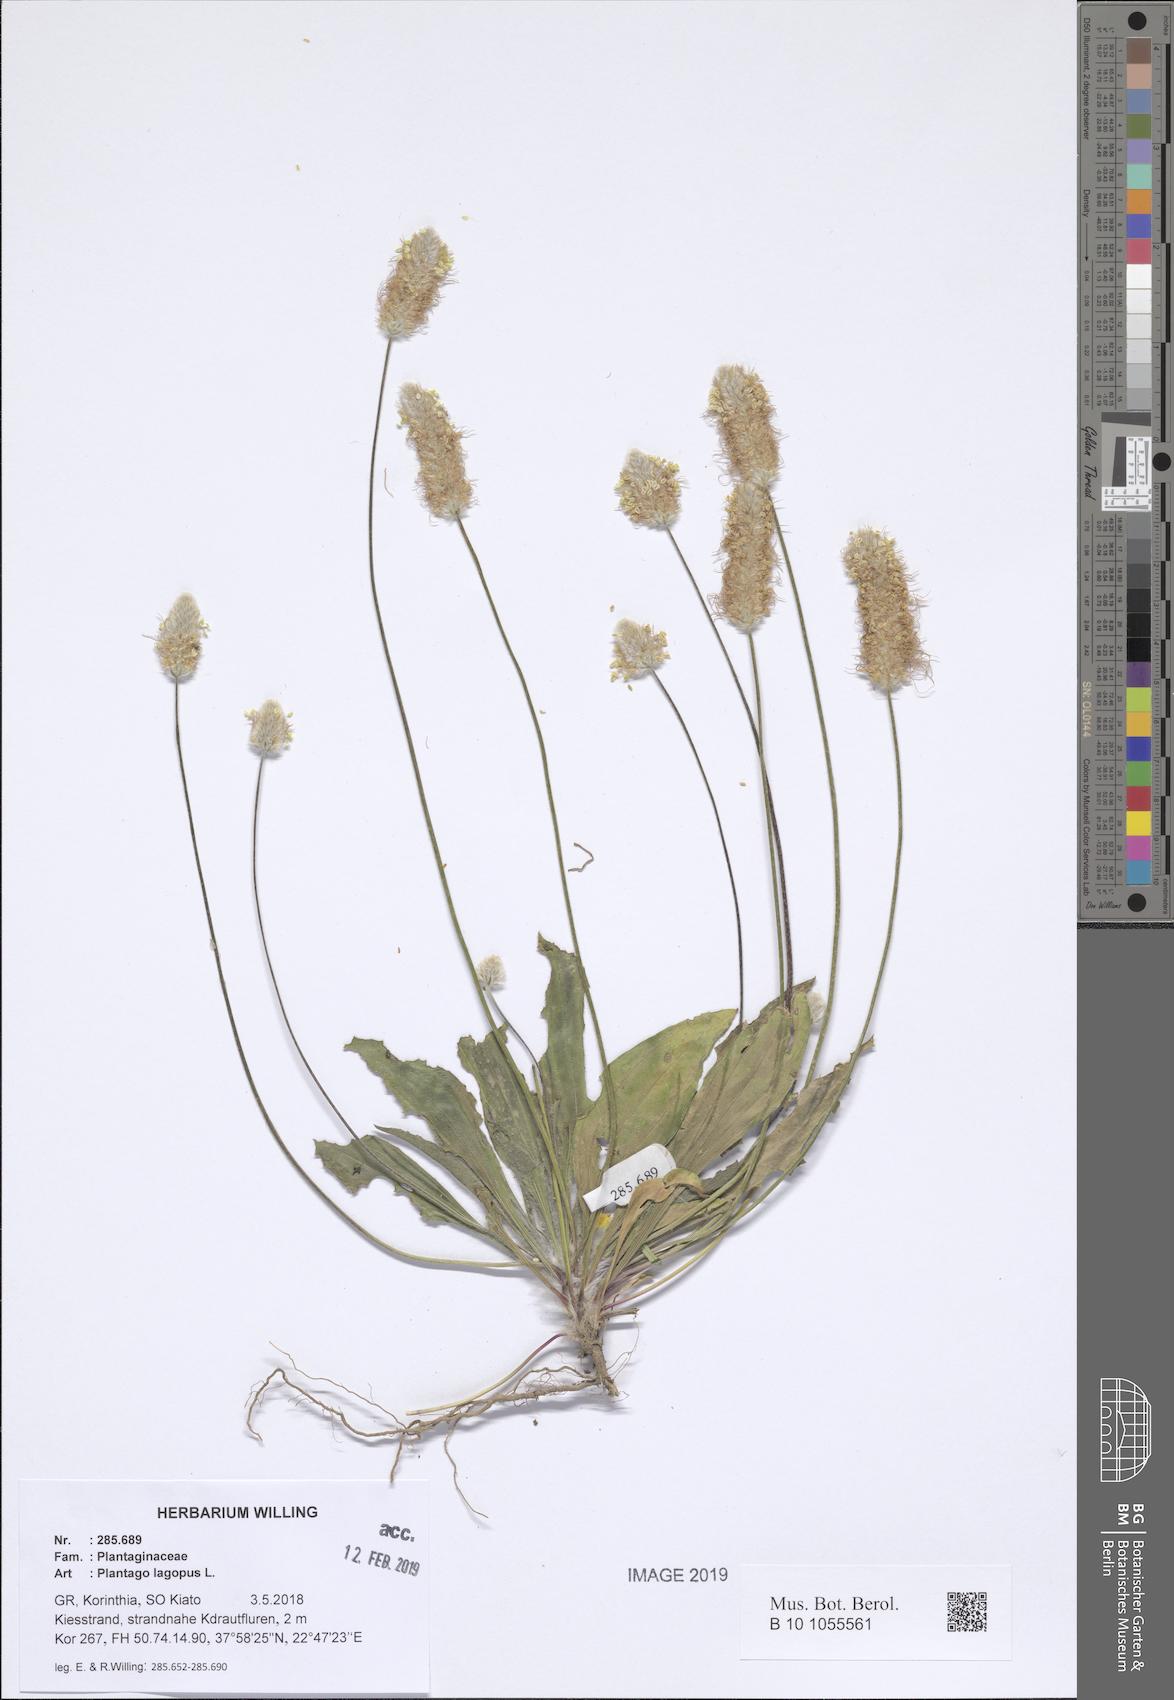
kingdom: Plantae
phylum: Tracheophyta
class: Magnoliopsida
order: Lamiales
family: Plantaginaceae
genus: Plantago
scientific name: Plantago lagopus
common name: Hare-foot plantain
